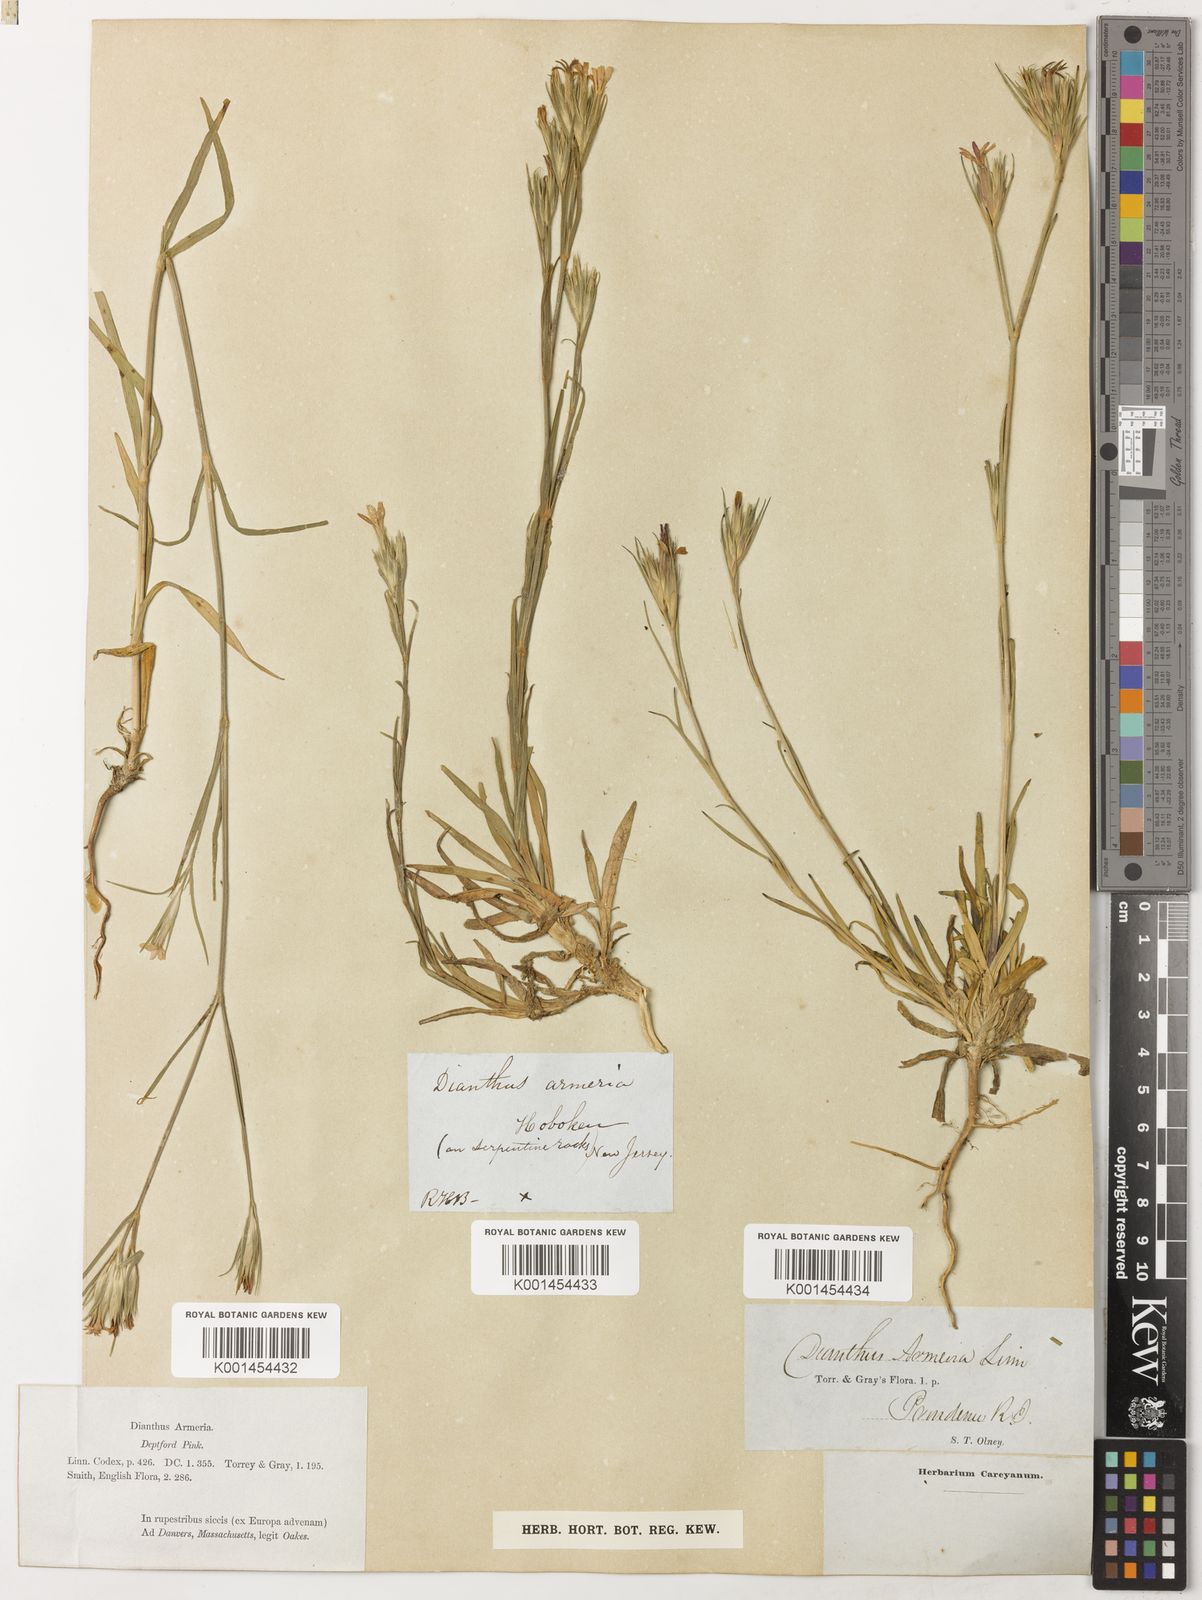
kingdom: Plantae
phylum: Tracheophyta
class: Magnoliopsida
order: Caryophyllales
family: Caryophyllaceae
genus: Dianthus
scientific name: Dianthus armeria
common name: Deptford pink
